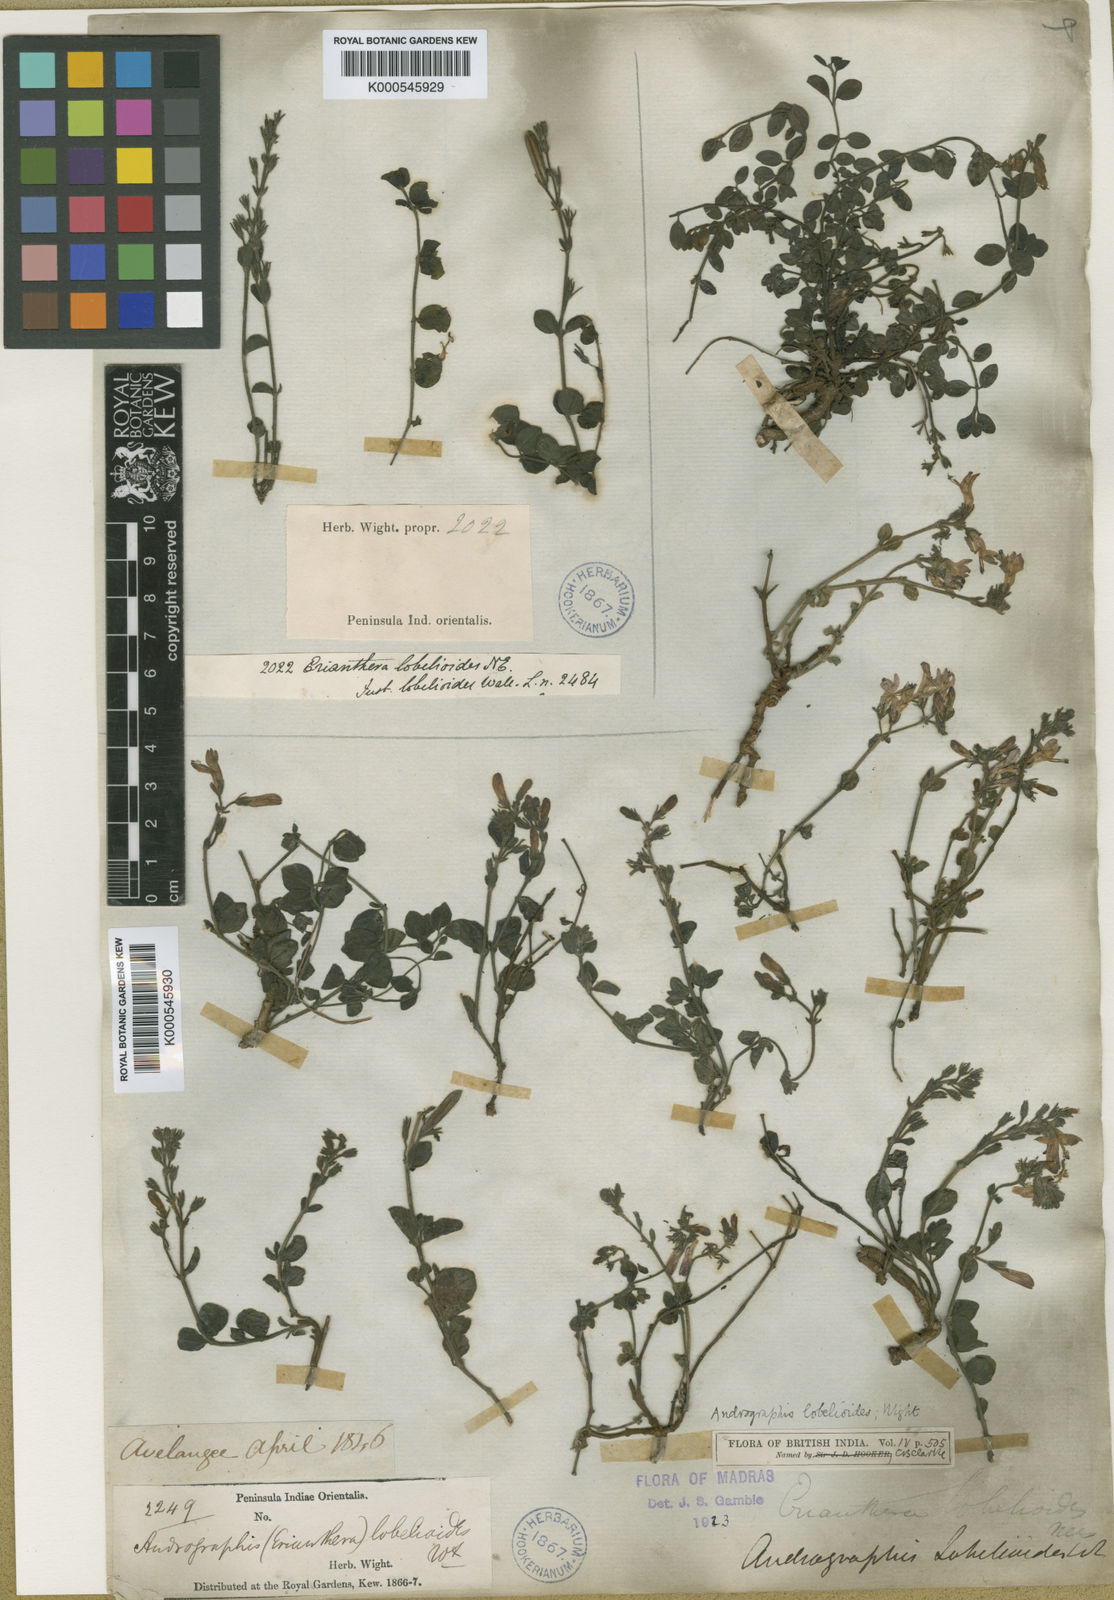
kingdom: Plantae
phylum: Tracheophyta
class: Magnoliopsida
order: Lamiales
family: Acanthaceae
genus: Andrographis
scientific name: Andrographis lobelioides
